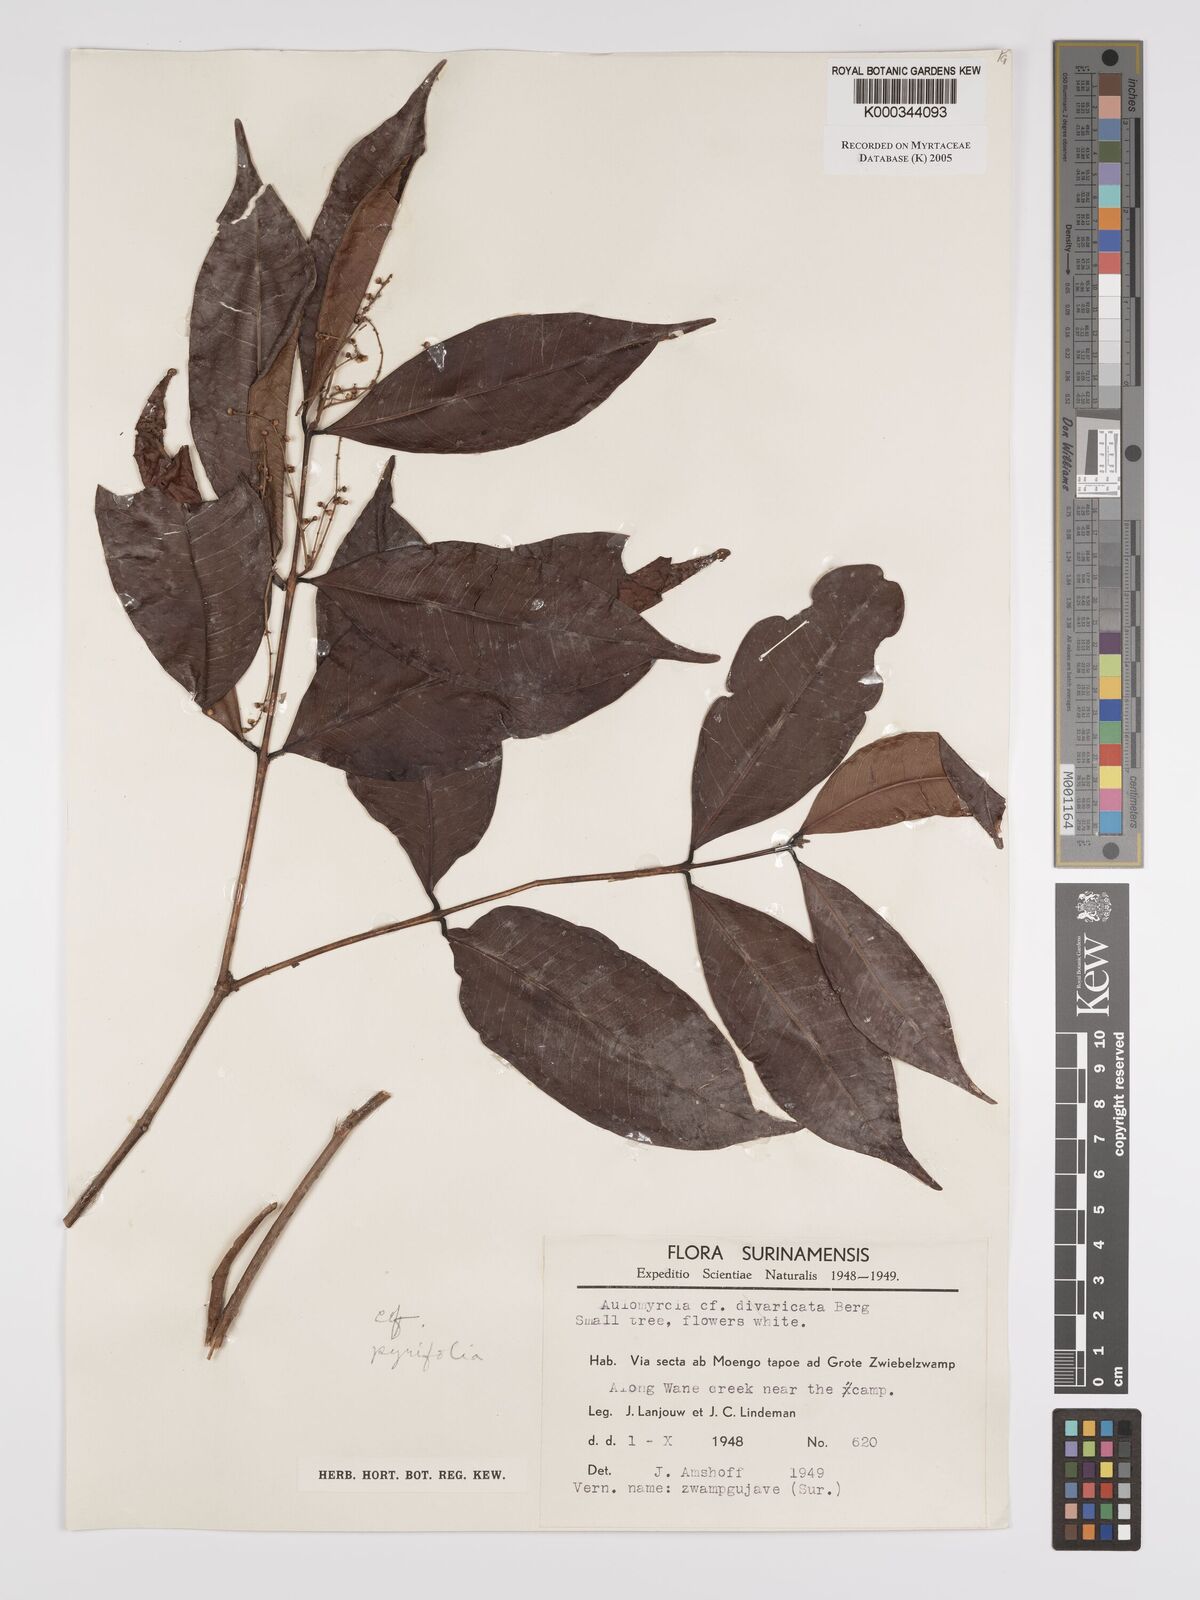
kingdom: Plantae
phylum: Tracheophyta
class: Magnoliopsida
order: Myrtales
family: Myrtaceae
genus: Myrcia
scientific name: Myrcia pyrifolia
